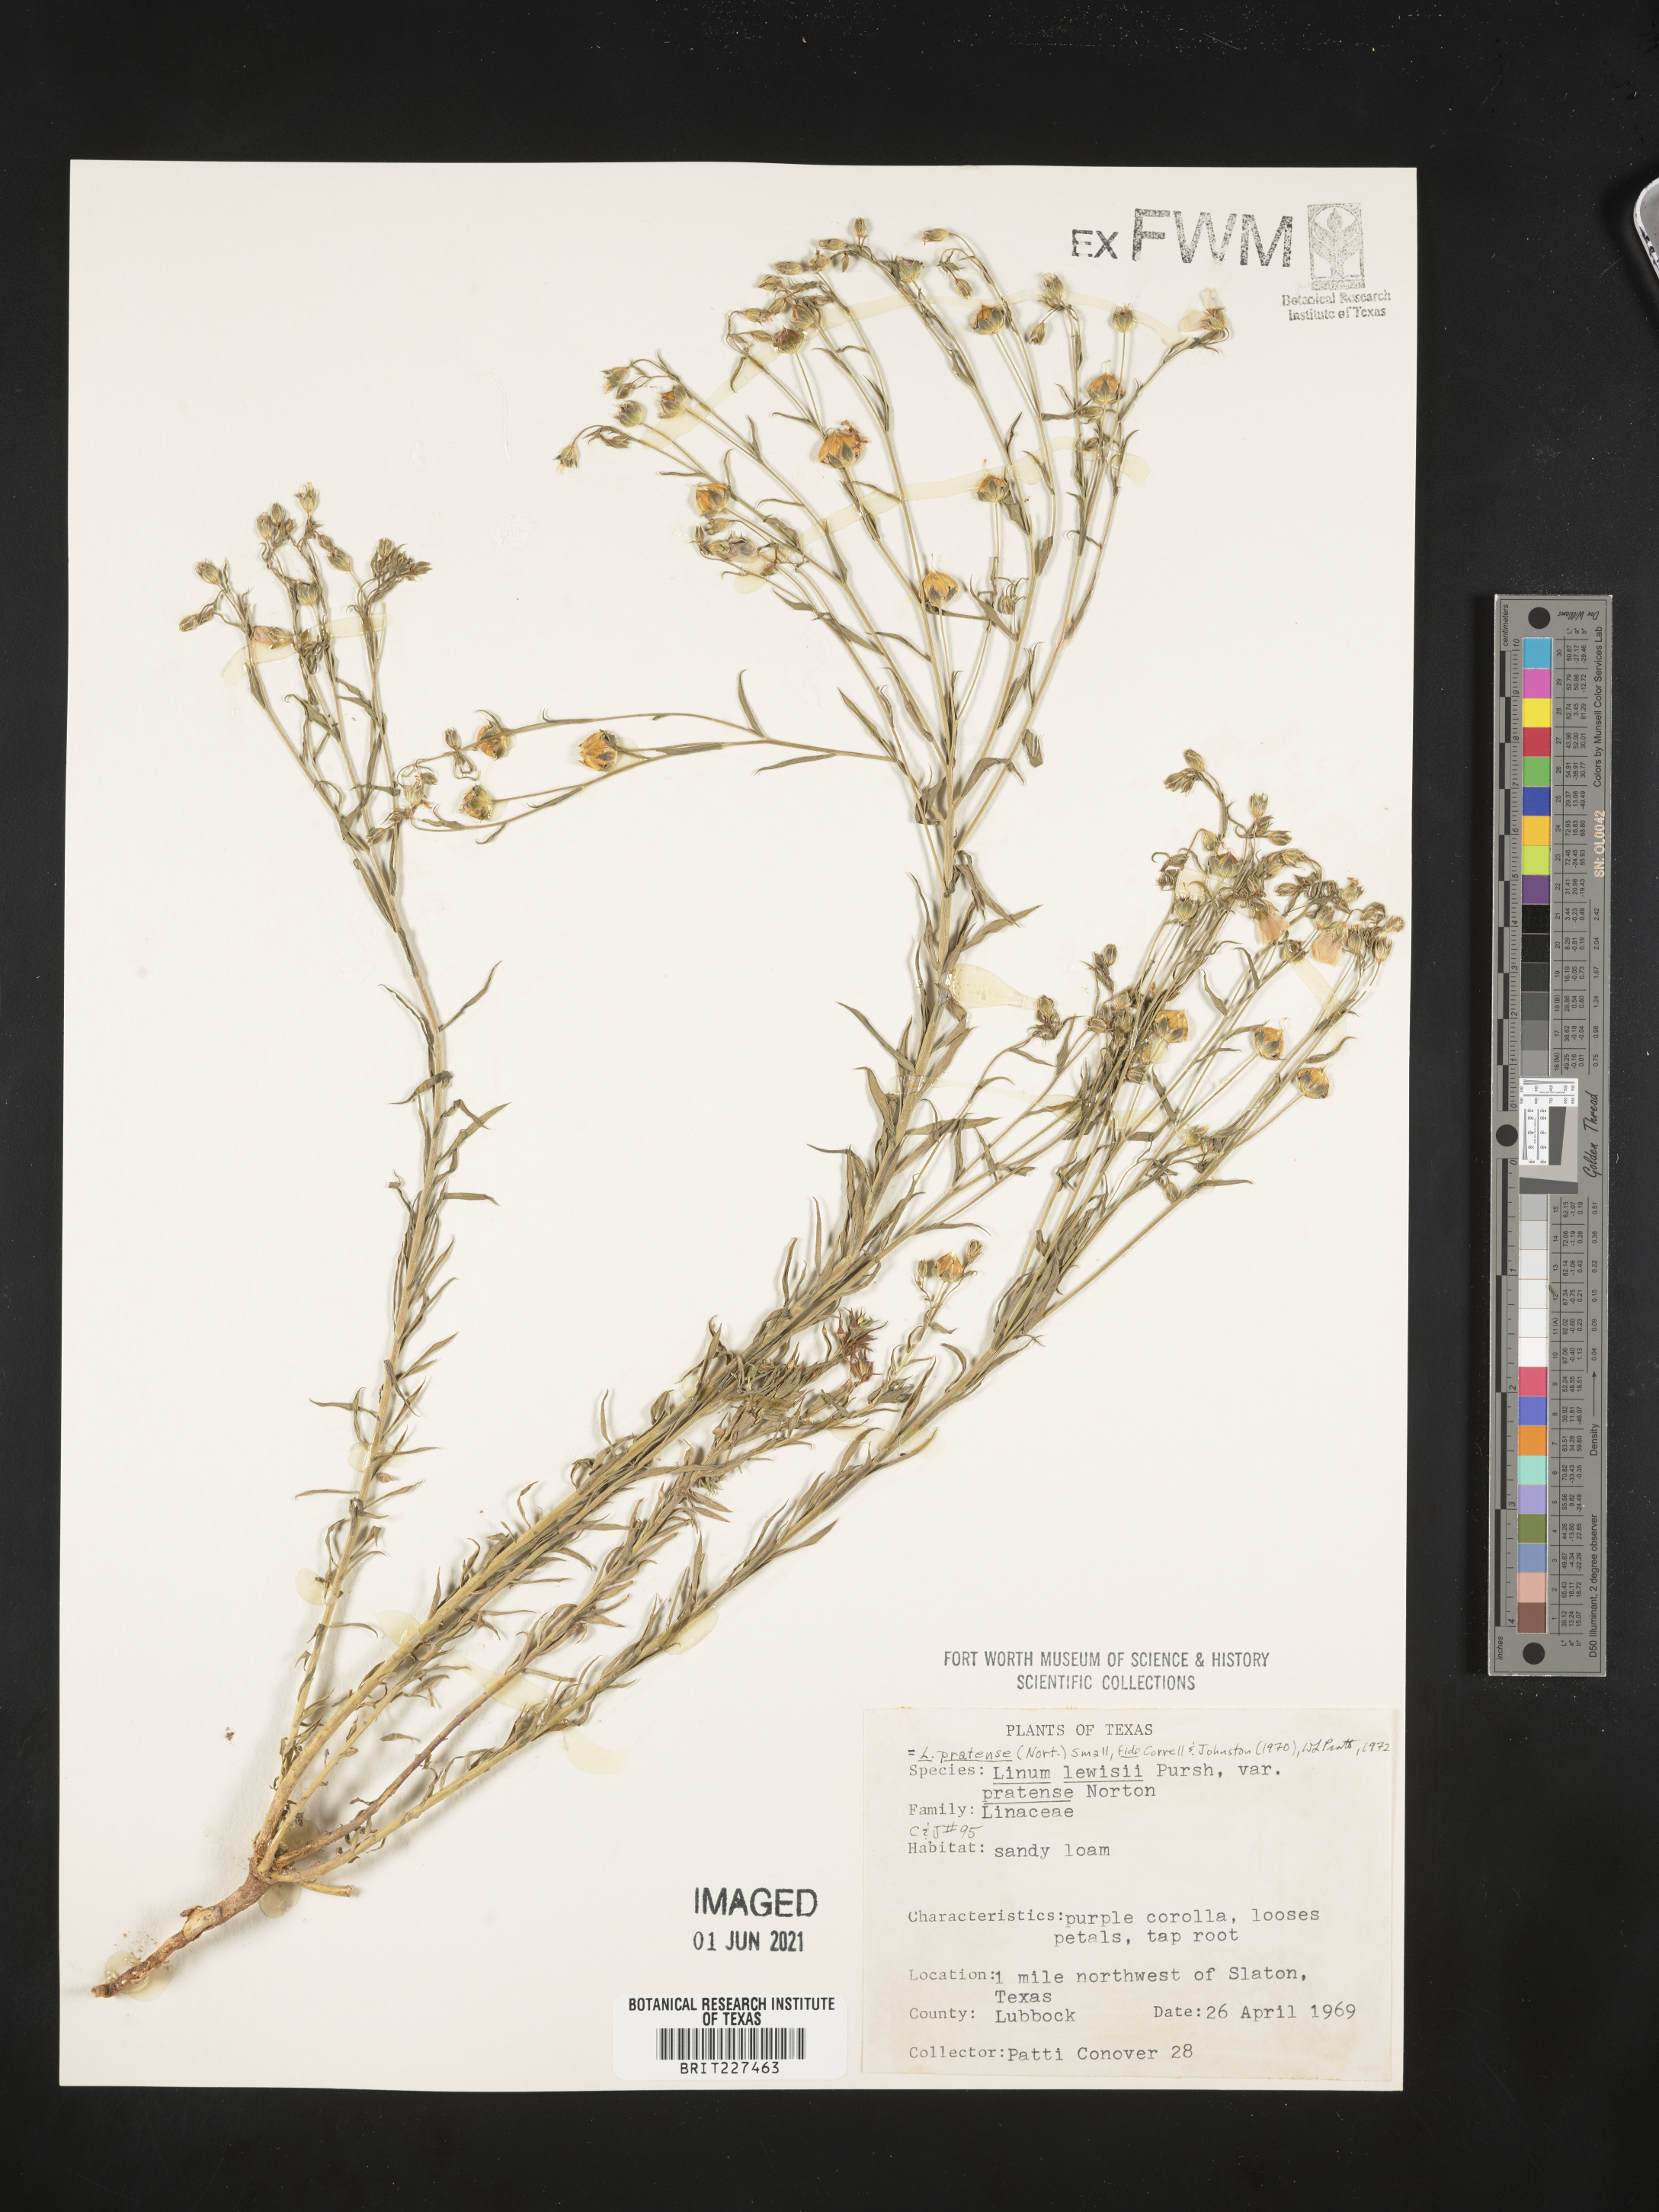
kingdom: Plantae
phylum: Tracheophyta
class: Magnoliopsida
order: Malpighiales
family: Linaceae
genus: Linum
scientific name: Linum pratense
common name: Norton's flax
